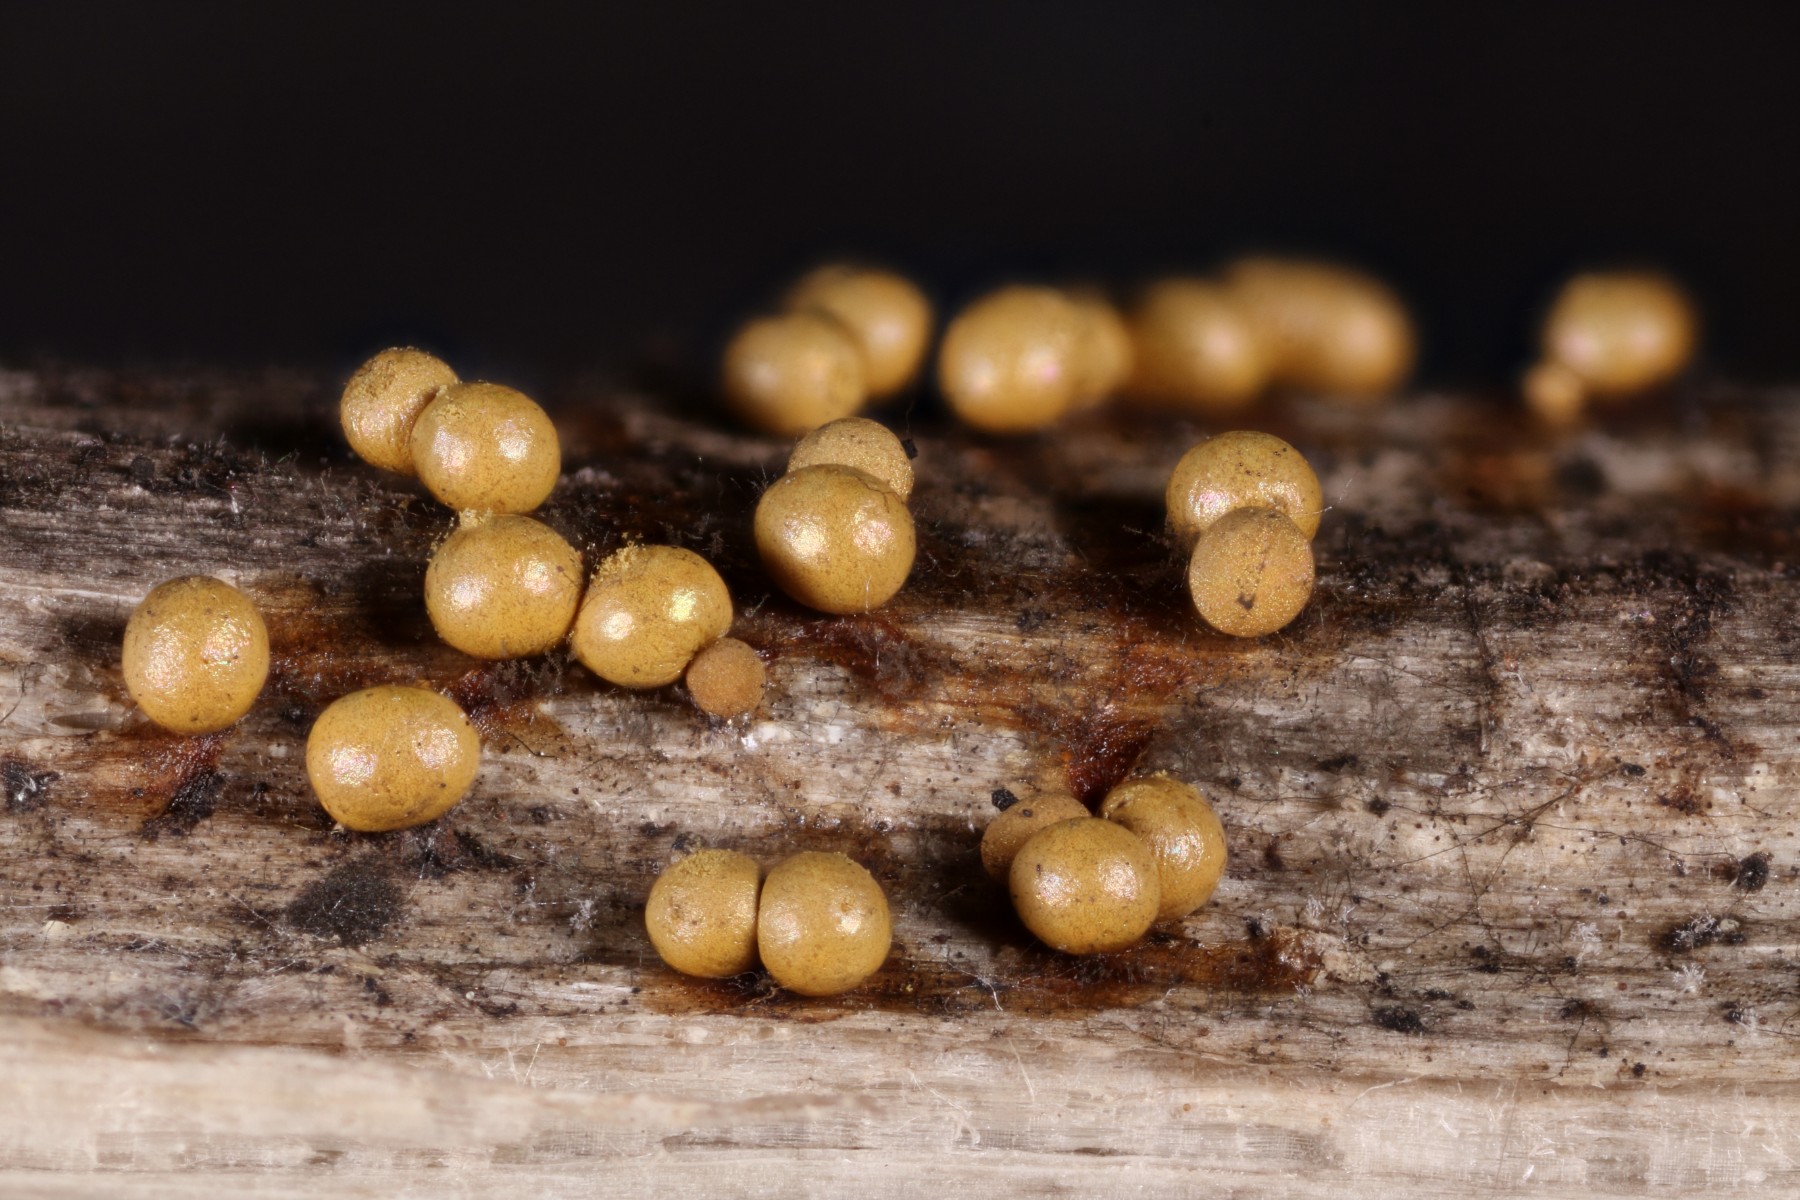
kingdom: Protozoa
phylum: Mycetozoa
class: Myxomycetes
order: Trichiales
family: Trichiaceae
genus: Trichia
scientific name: Trichia varia
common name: foranderlig hårbold
